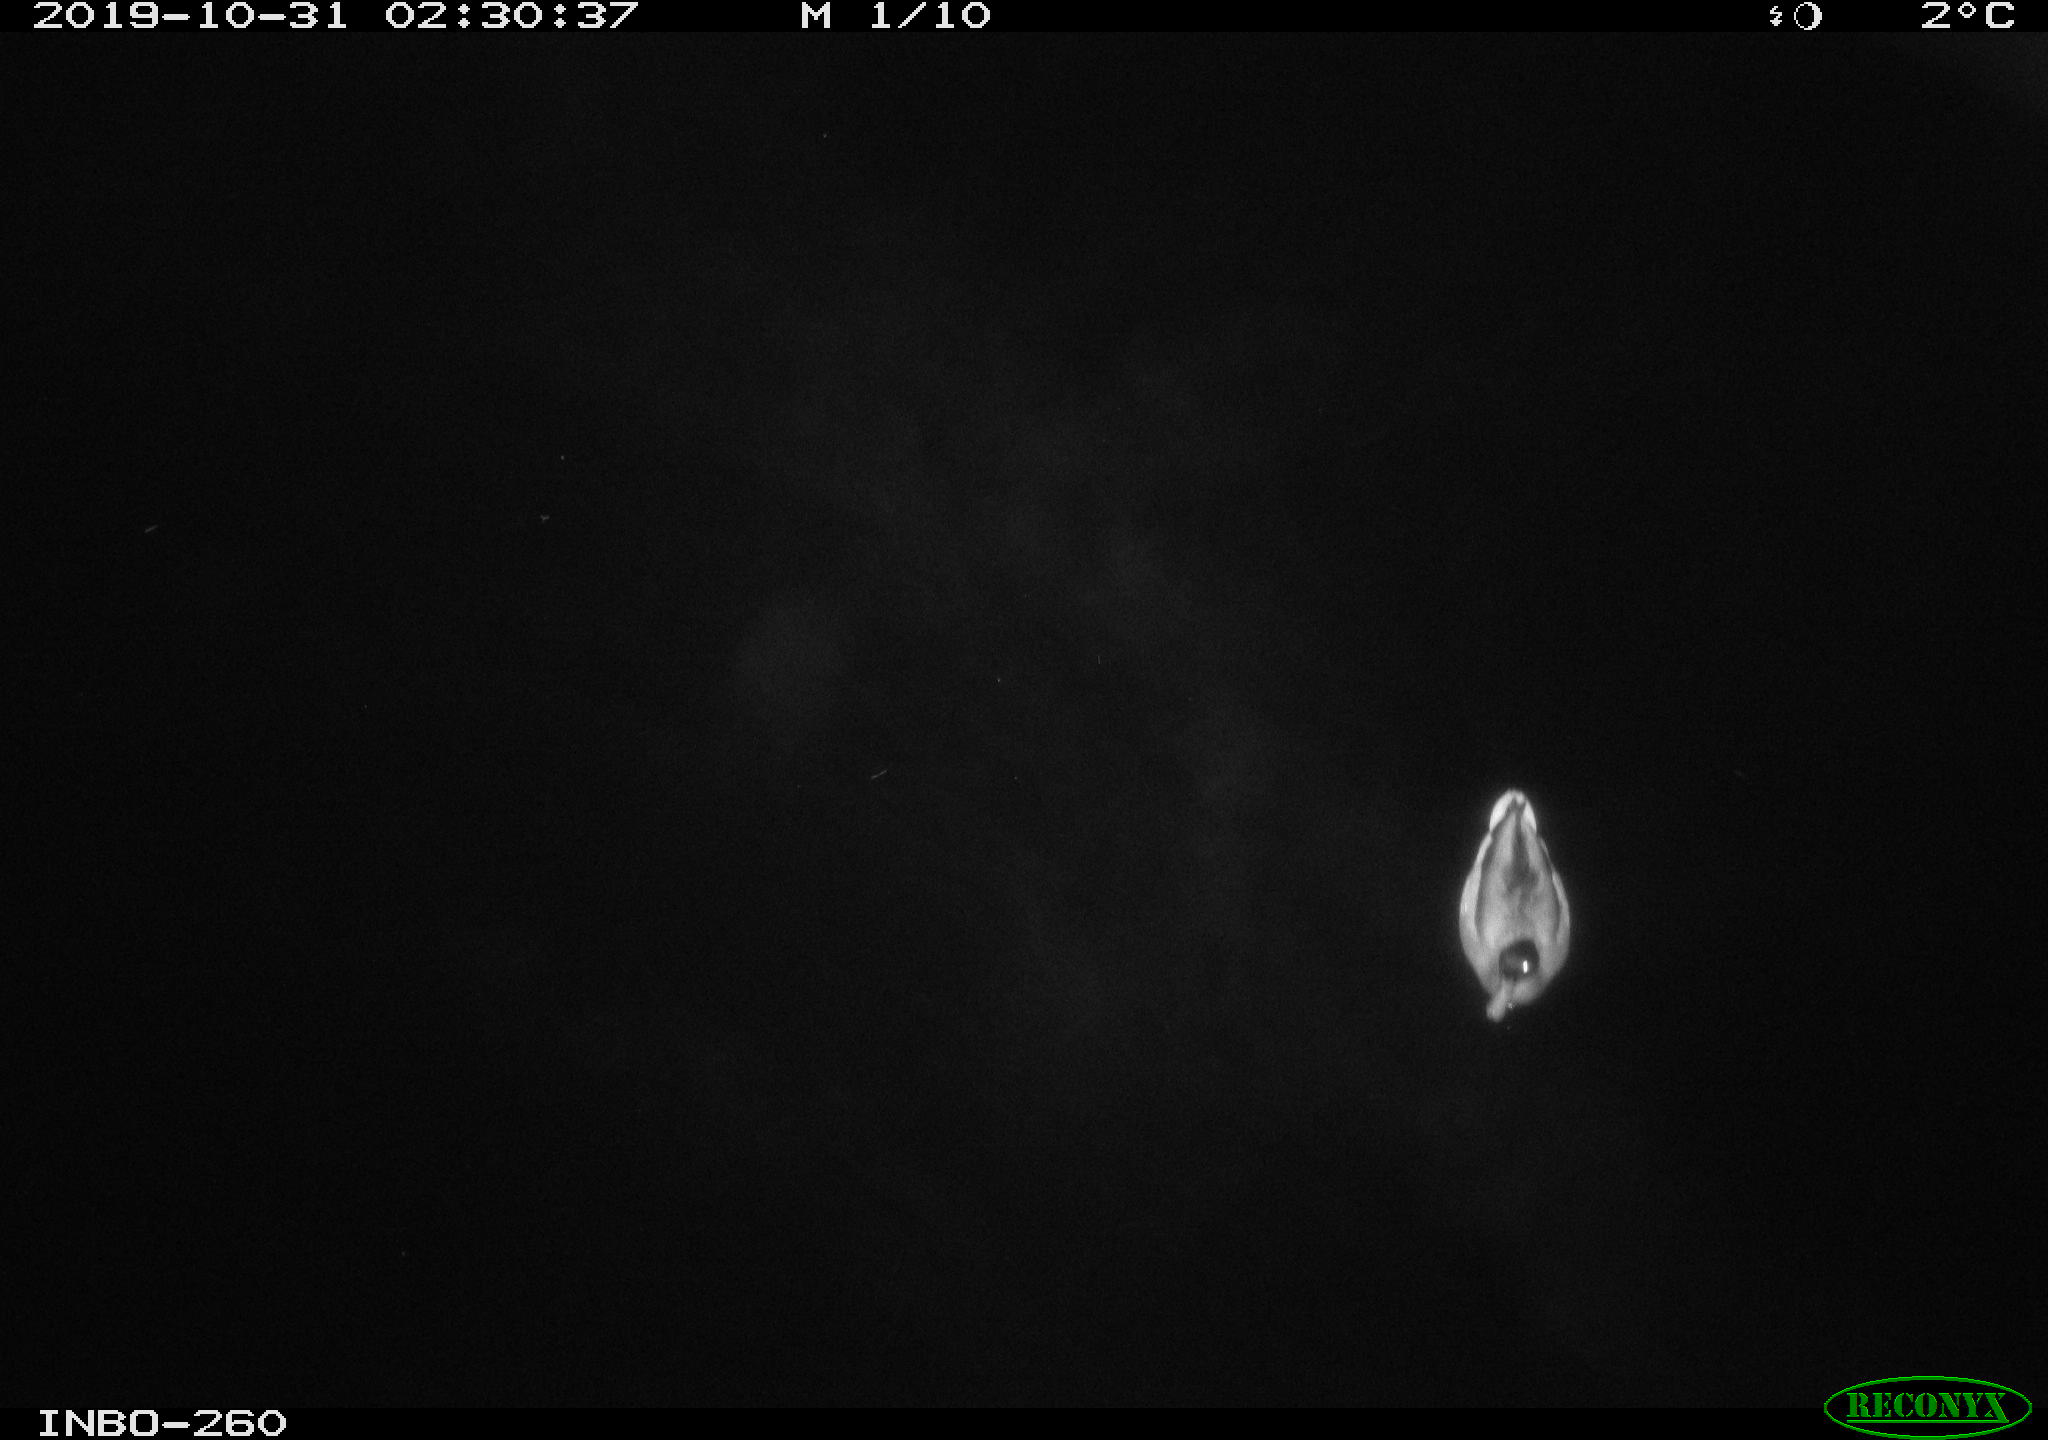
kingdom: Animalia
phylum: Chordata
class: Aves
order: Anseriformes
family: Anatidae
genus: Anas
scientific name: Anas platyrhynchos
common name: Mallard
